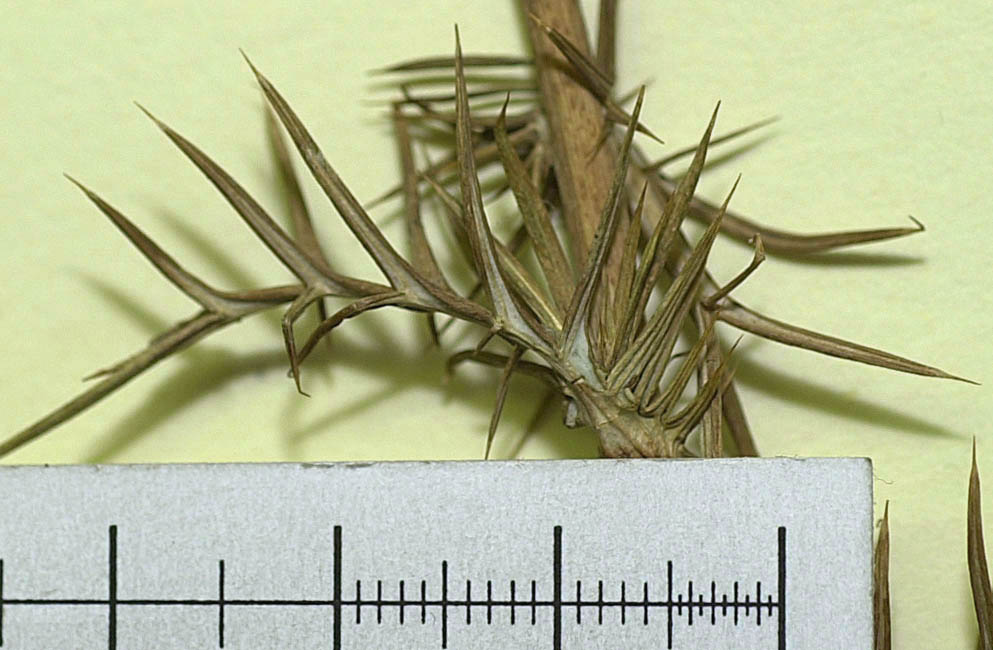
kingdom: Plantae
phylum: Tracheophyta
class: Magnoliopsida
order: Asterales
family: Asteraceae
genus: Cousinia
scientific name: Cousinia podlechii
